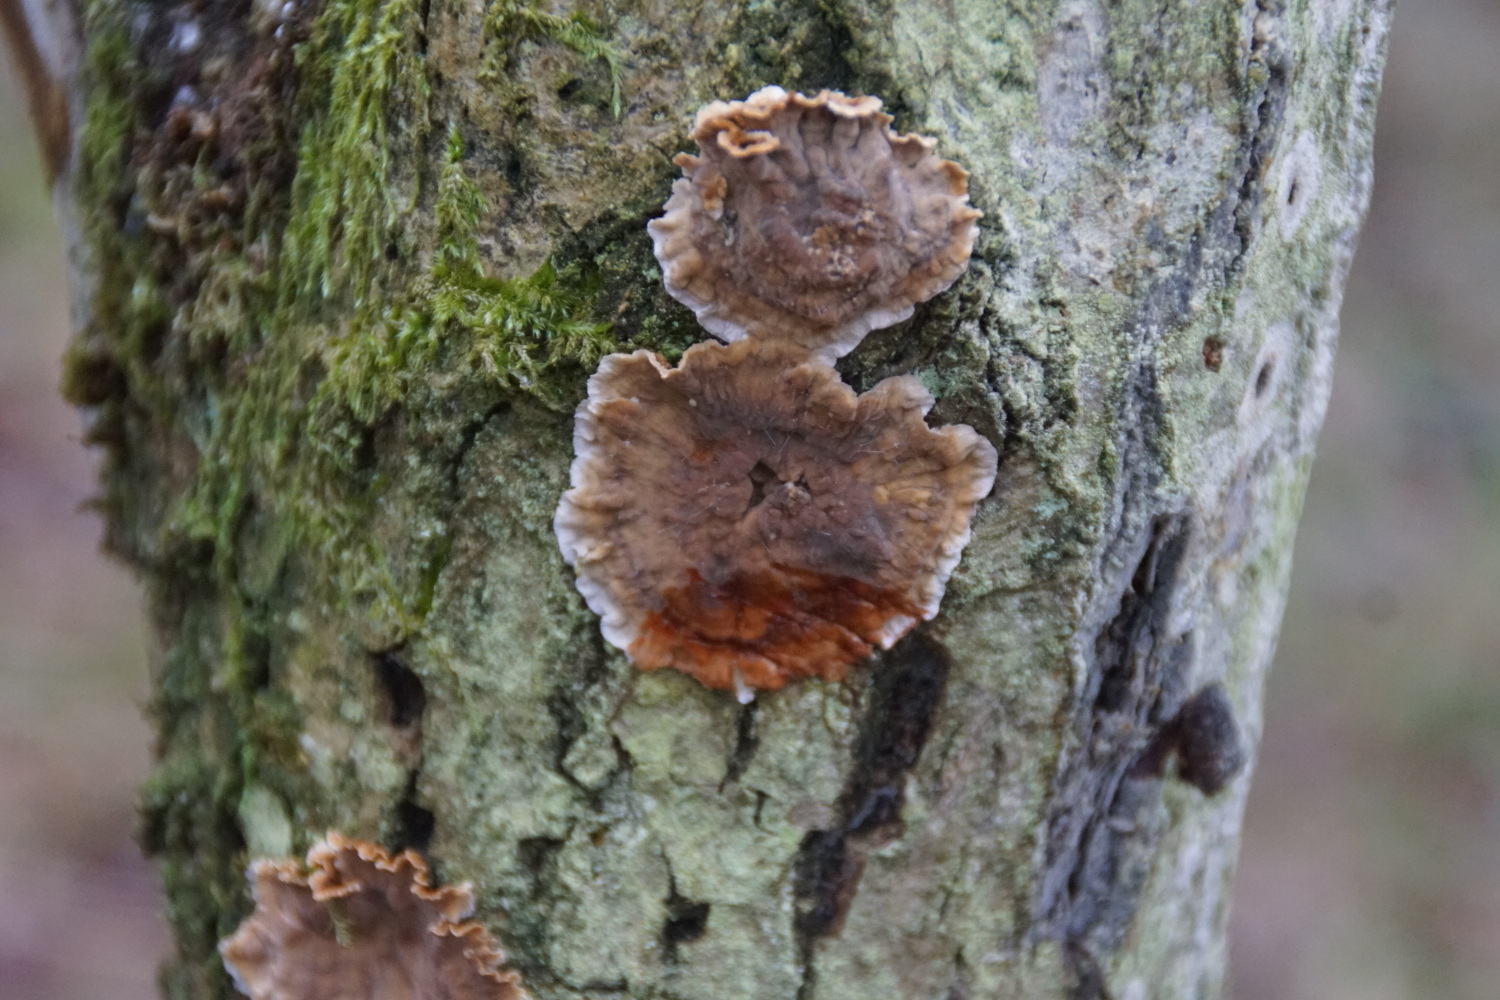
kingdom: Fungi
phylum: Basidiomycota
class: Agaricomycetes
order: Russulales
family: Stereaceae
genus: Stereum
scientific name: Stereum gausapatum
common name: tynd lædersvamp
